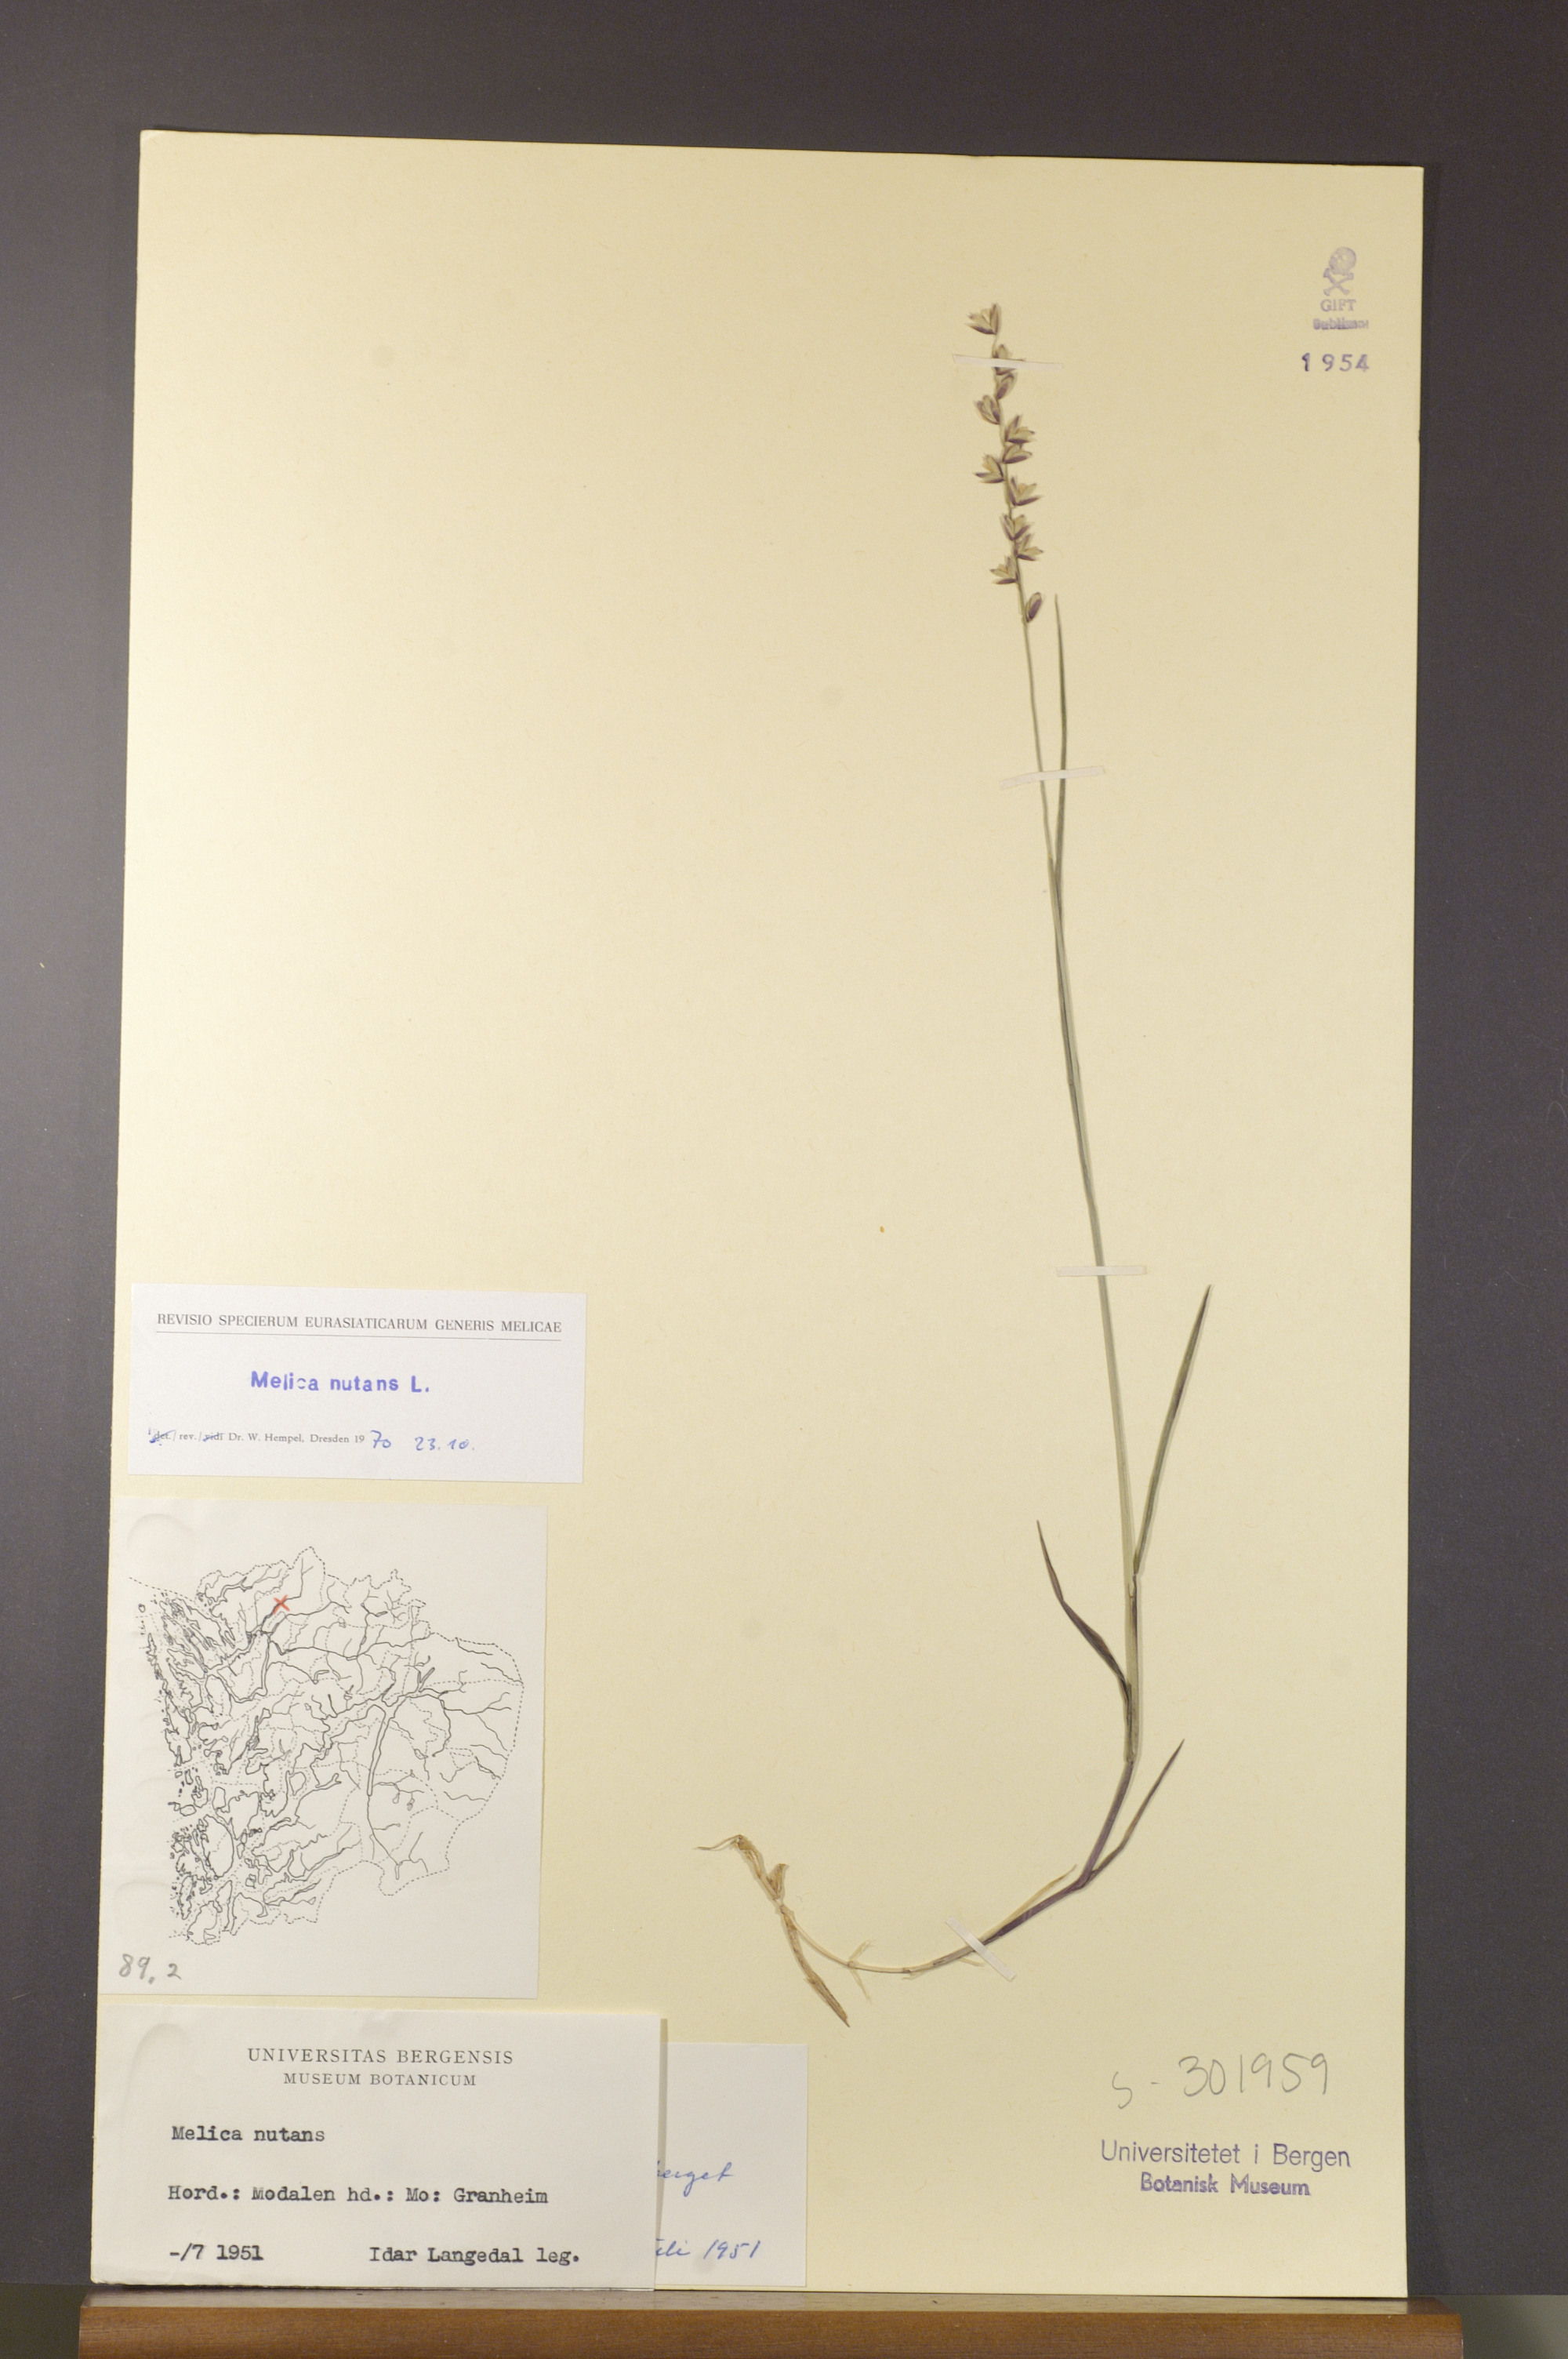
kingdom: Plantae
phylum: Tracheophyta
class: Liliopsida
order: Poales
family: Poaceae
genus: Melica
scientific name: Melica nutans
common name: Mountain melick
